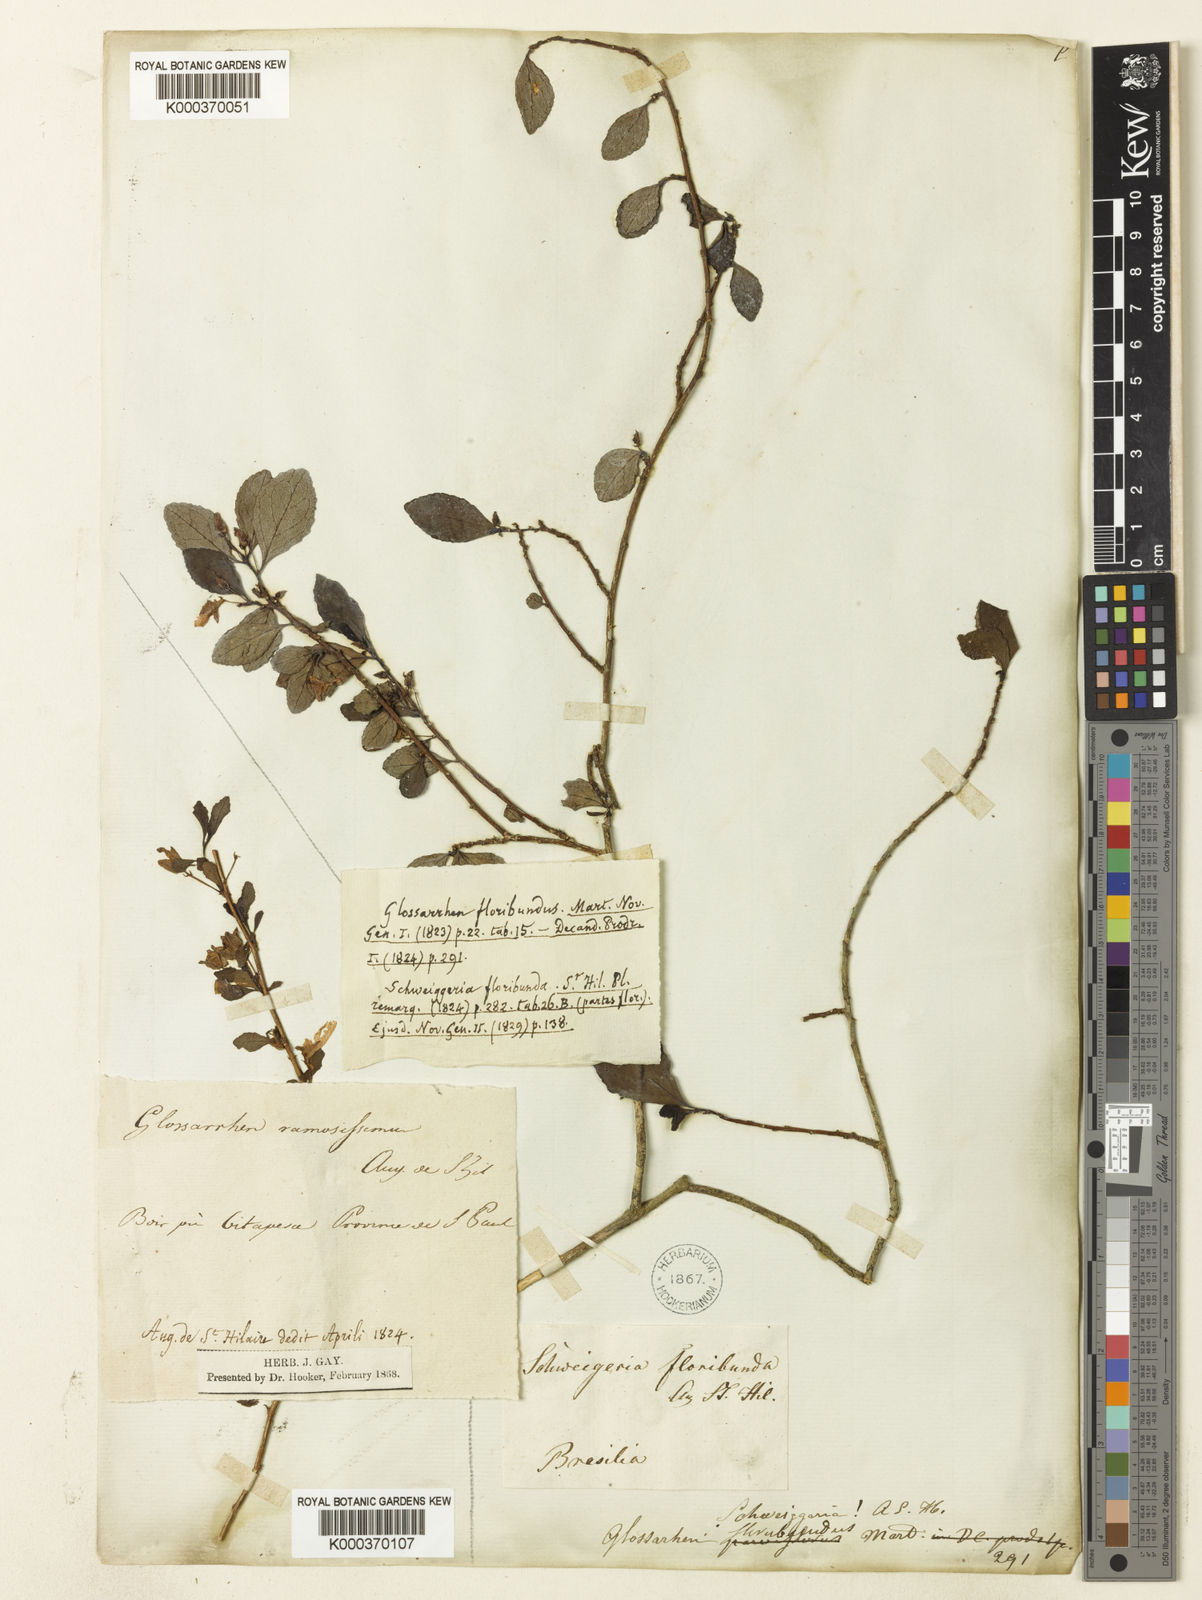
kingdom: Plantae
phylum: Tracheophyta
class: Magnoliopsida
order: Malpighiales
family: Violaceae
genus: Schweiggeria
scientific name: Schweiggeria fruticosa
